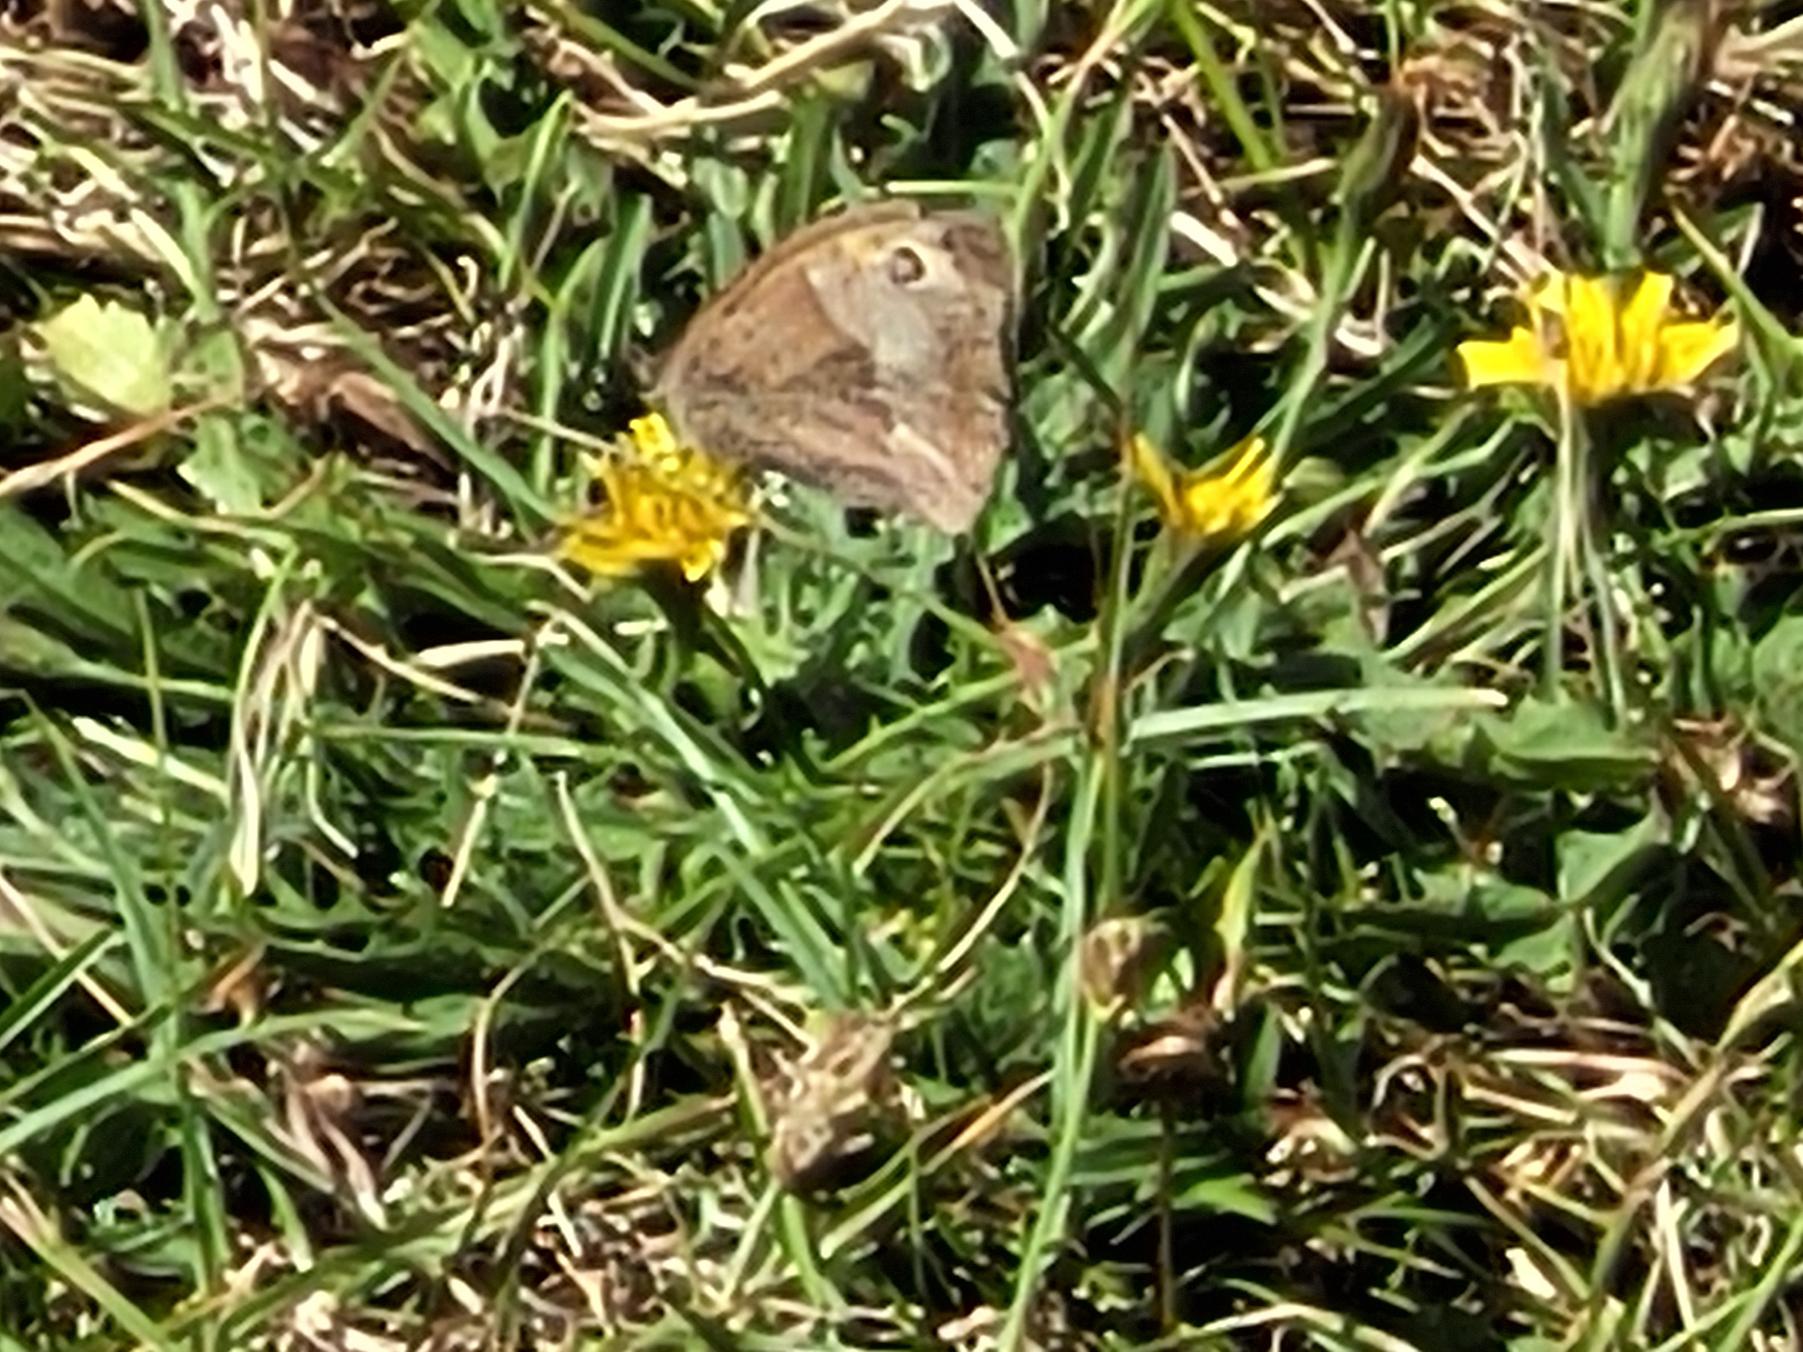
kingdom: Animalia
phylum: Arthropoda
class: Insecta
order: Lepidoptera
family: Nymphalidae
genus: Maniola
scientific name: Maniola jurtina
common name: Græsrandøje
